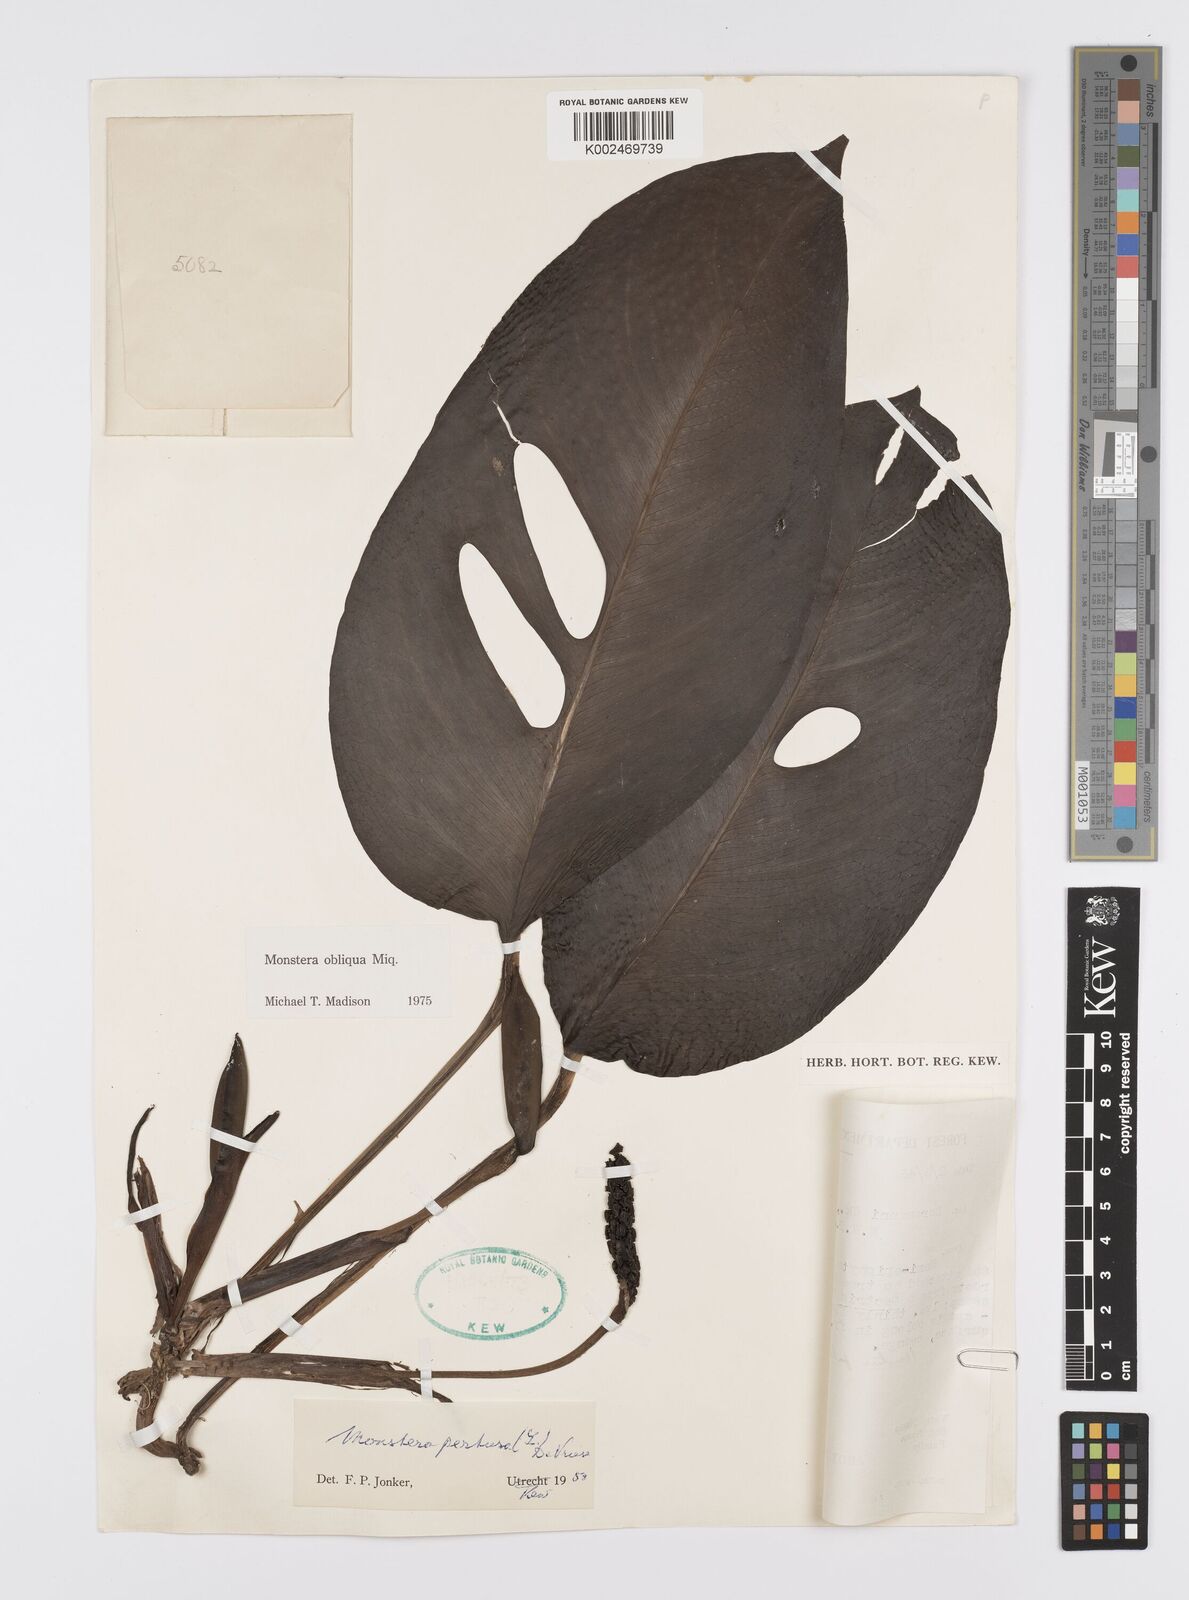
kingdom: Plantae
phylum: Tracheophyta
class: Liliopsida
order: Alismatales
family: Araceae
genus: Monstera
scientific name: Monstera obliqua
